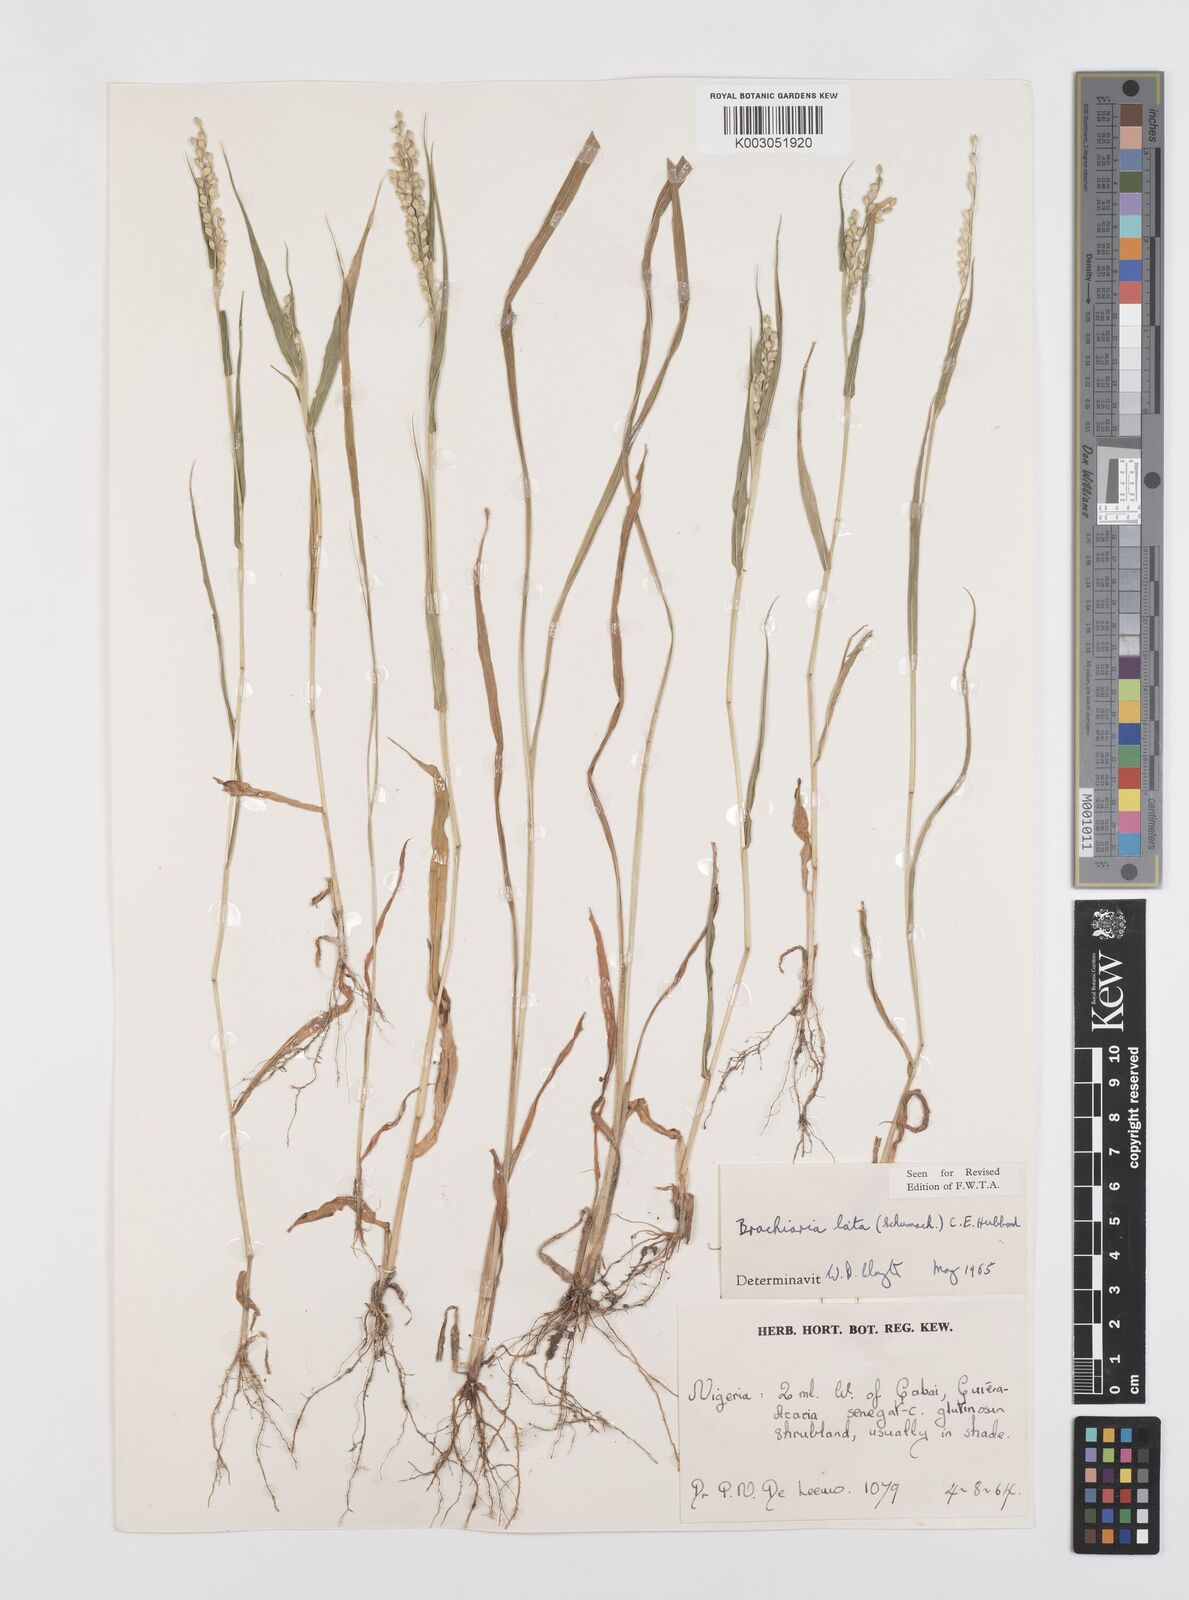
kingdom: Plantae
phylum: Tracheophyta
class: Liliopsida
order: Poales
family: Poaceae
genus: Urochloa
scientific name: Urochloa lata
